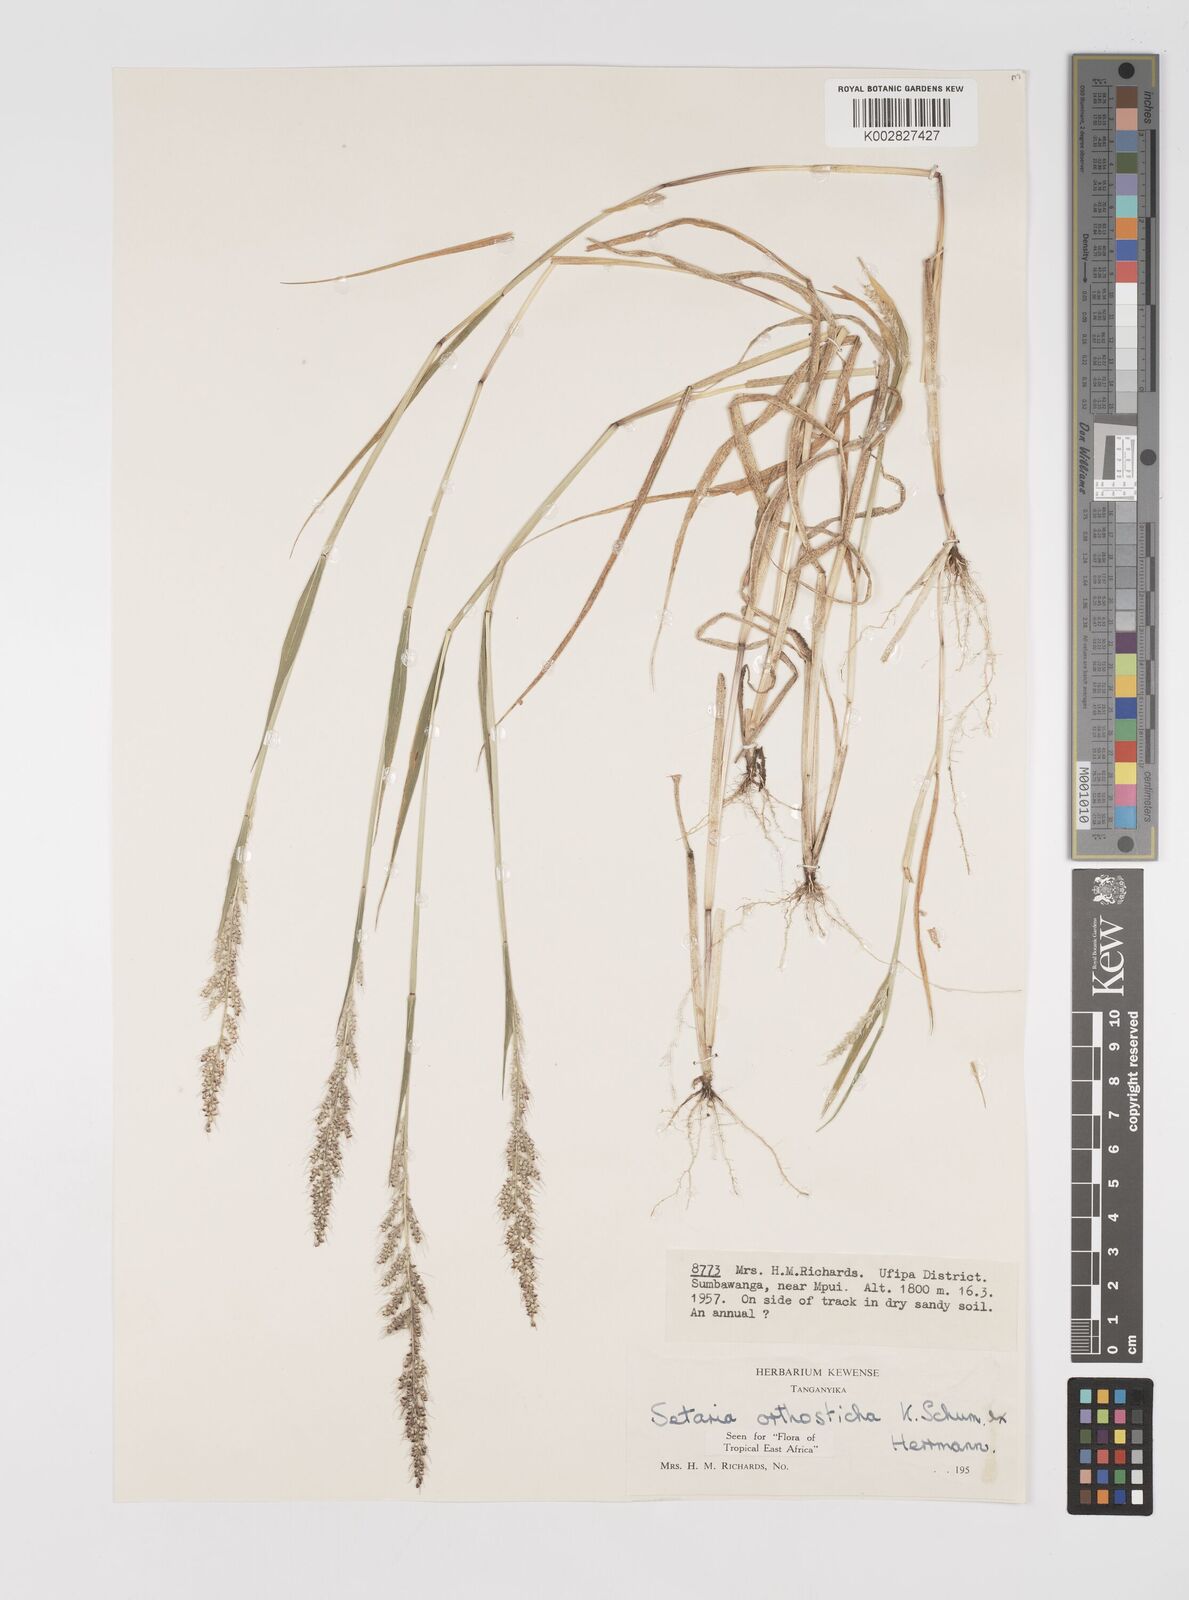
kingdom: Plantae
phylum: Tracheophyta
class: Liliopsida
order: Poales
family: Poaceae
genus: Setaria
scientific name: Setaria orthosticha
